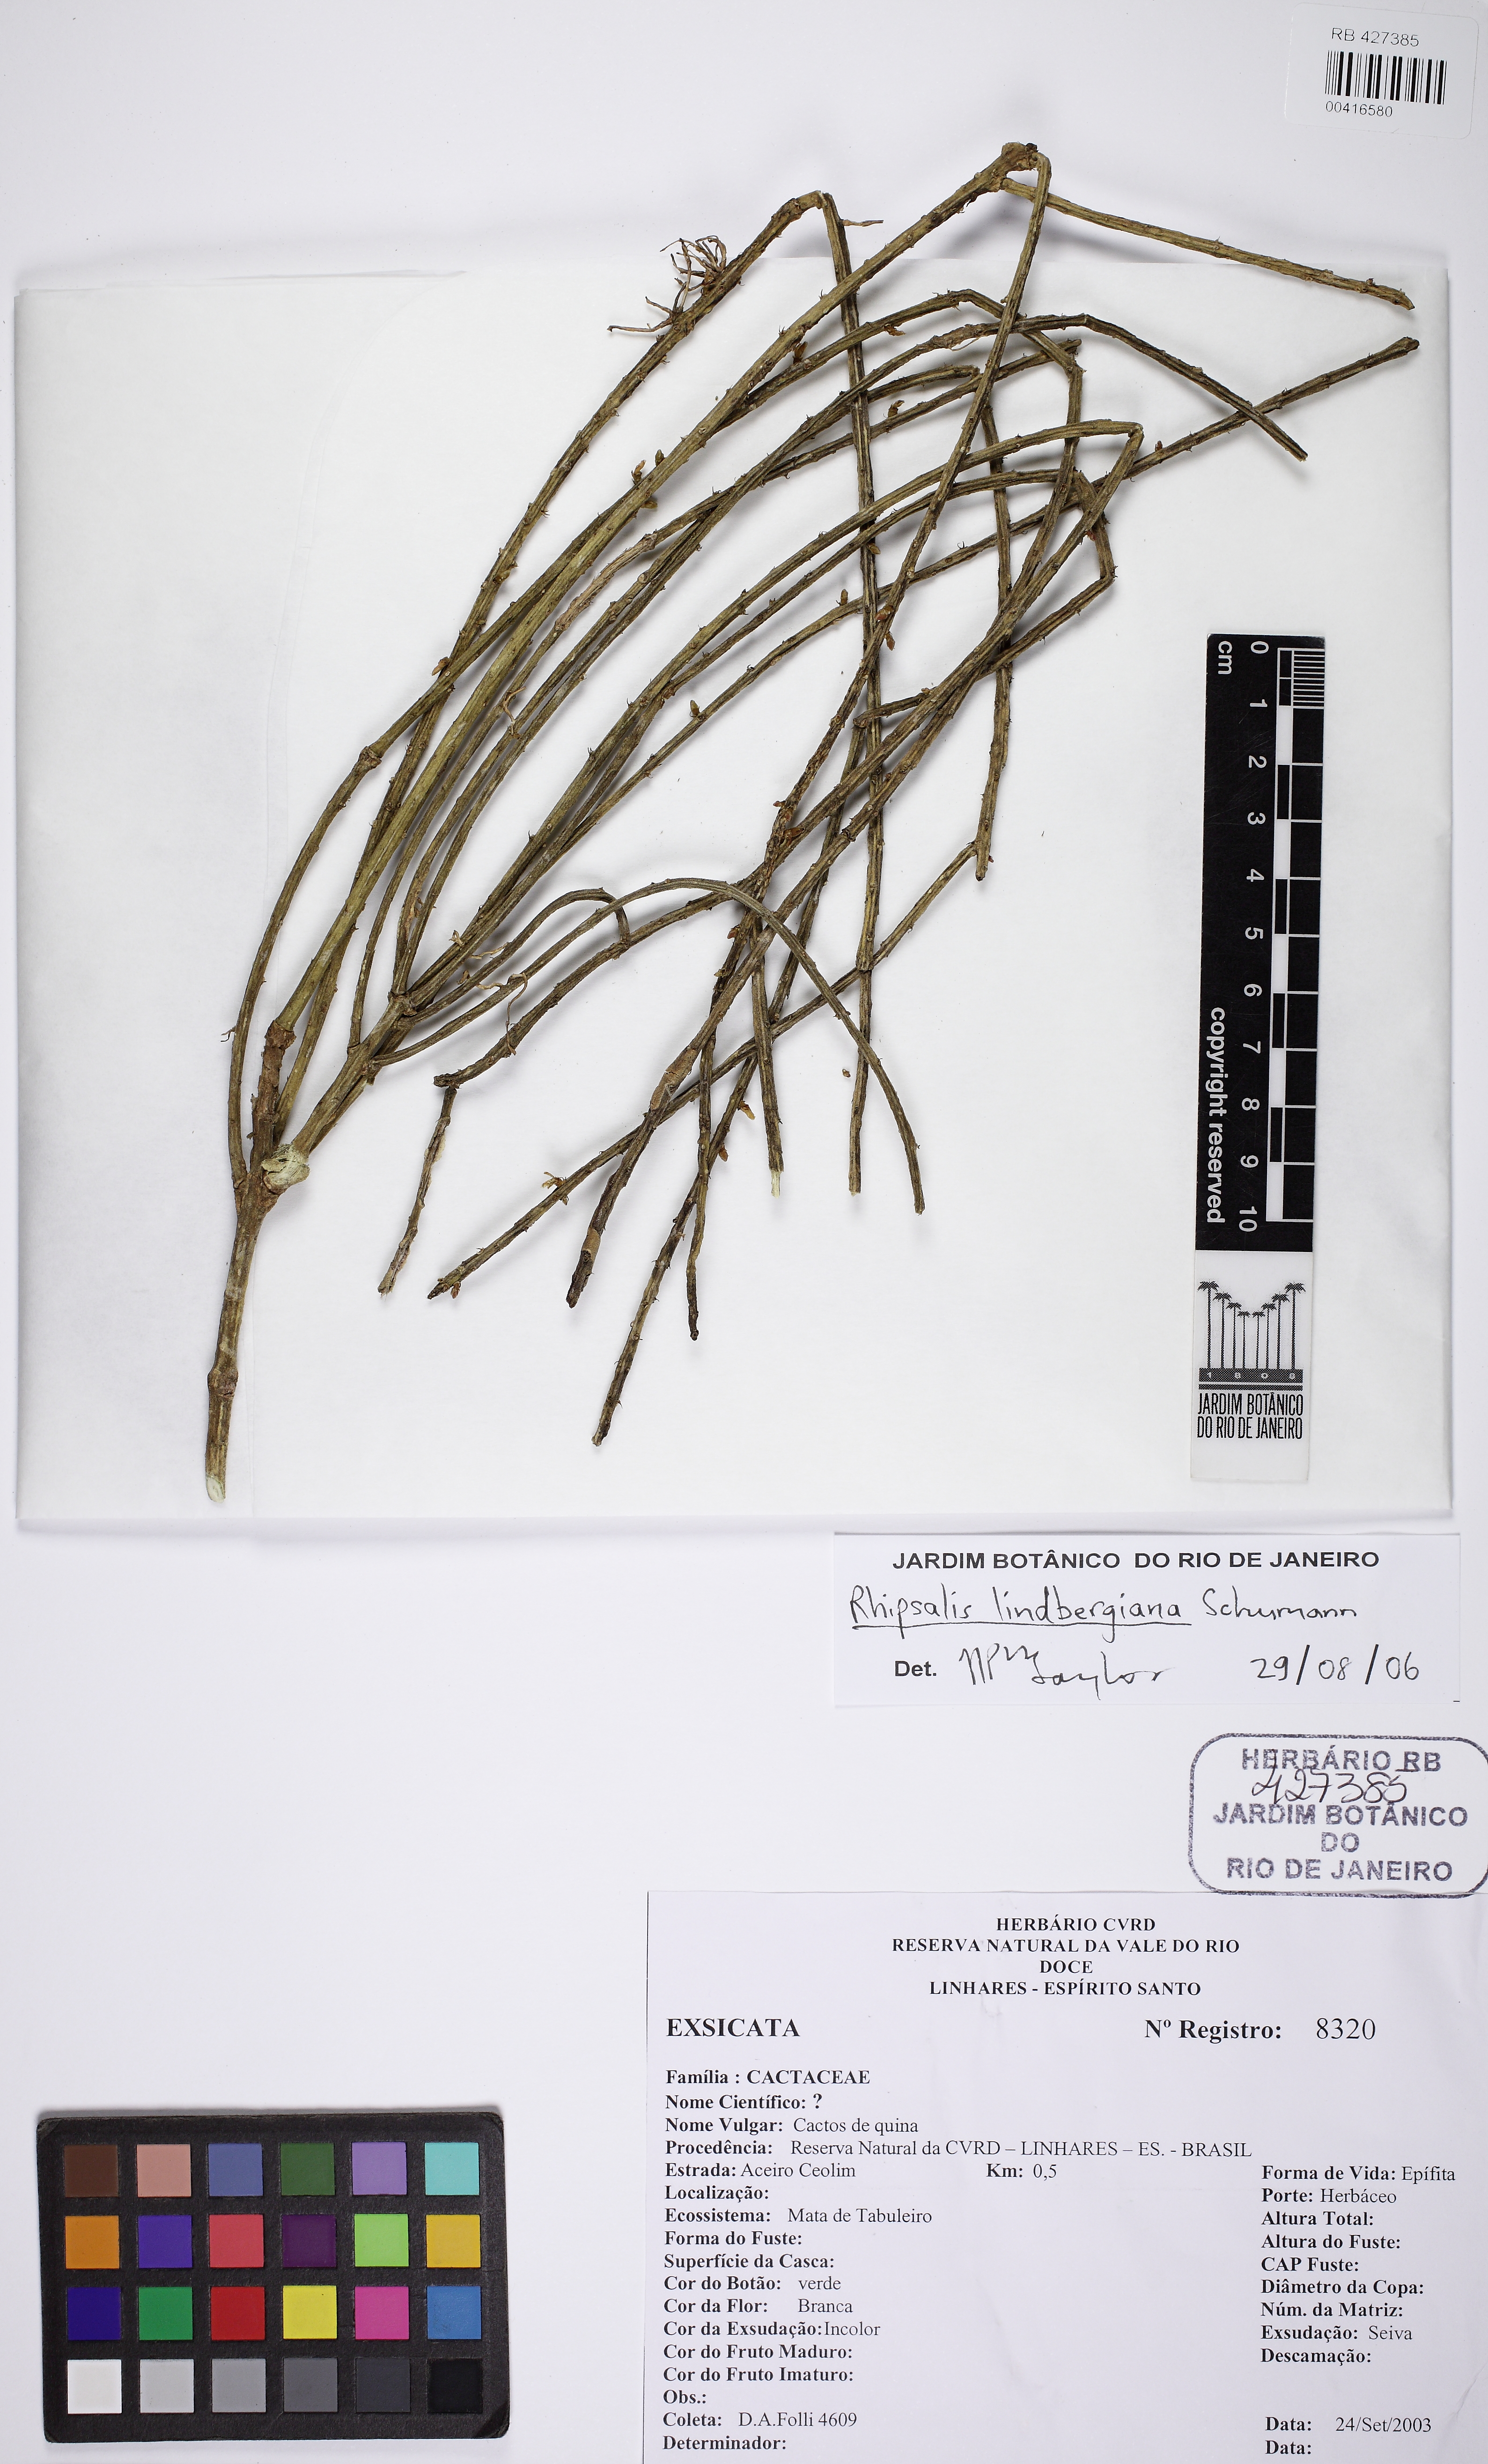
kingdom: Plantae
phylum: Tracheophyta
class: Magnoliopsida
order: Caryophyllales
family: Cactaceae
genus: Rhipsalis
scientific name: Rhipsalis lindbergiana
